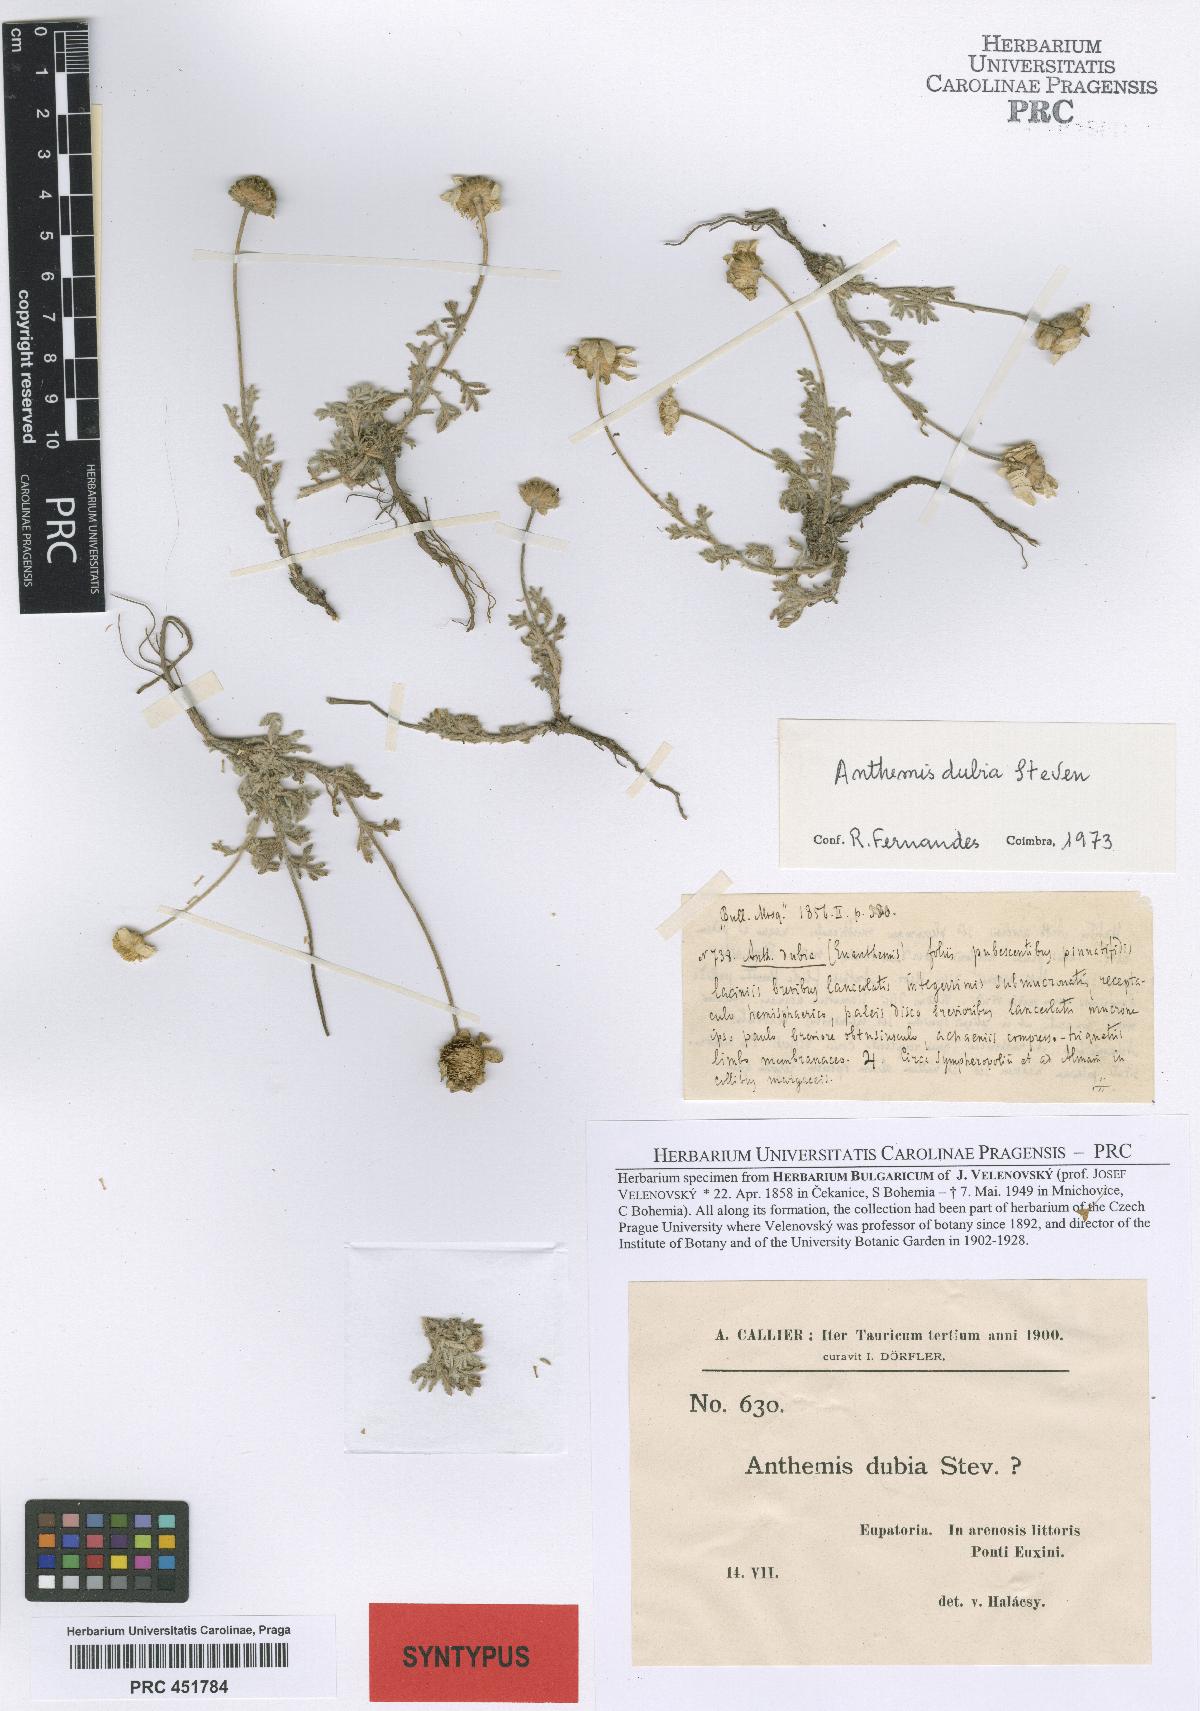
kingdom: Plantae
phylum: Tracheophyta
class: Magnoliopsida
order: Asterales
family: Asteraceae
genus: Cota
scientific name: Cota dubia
